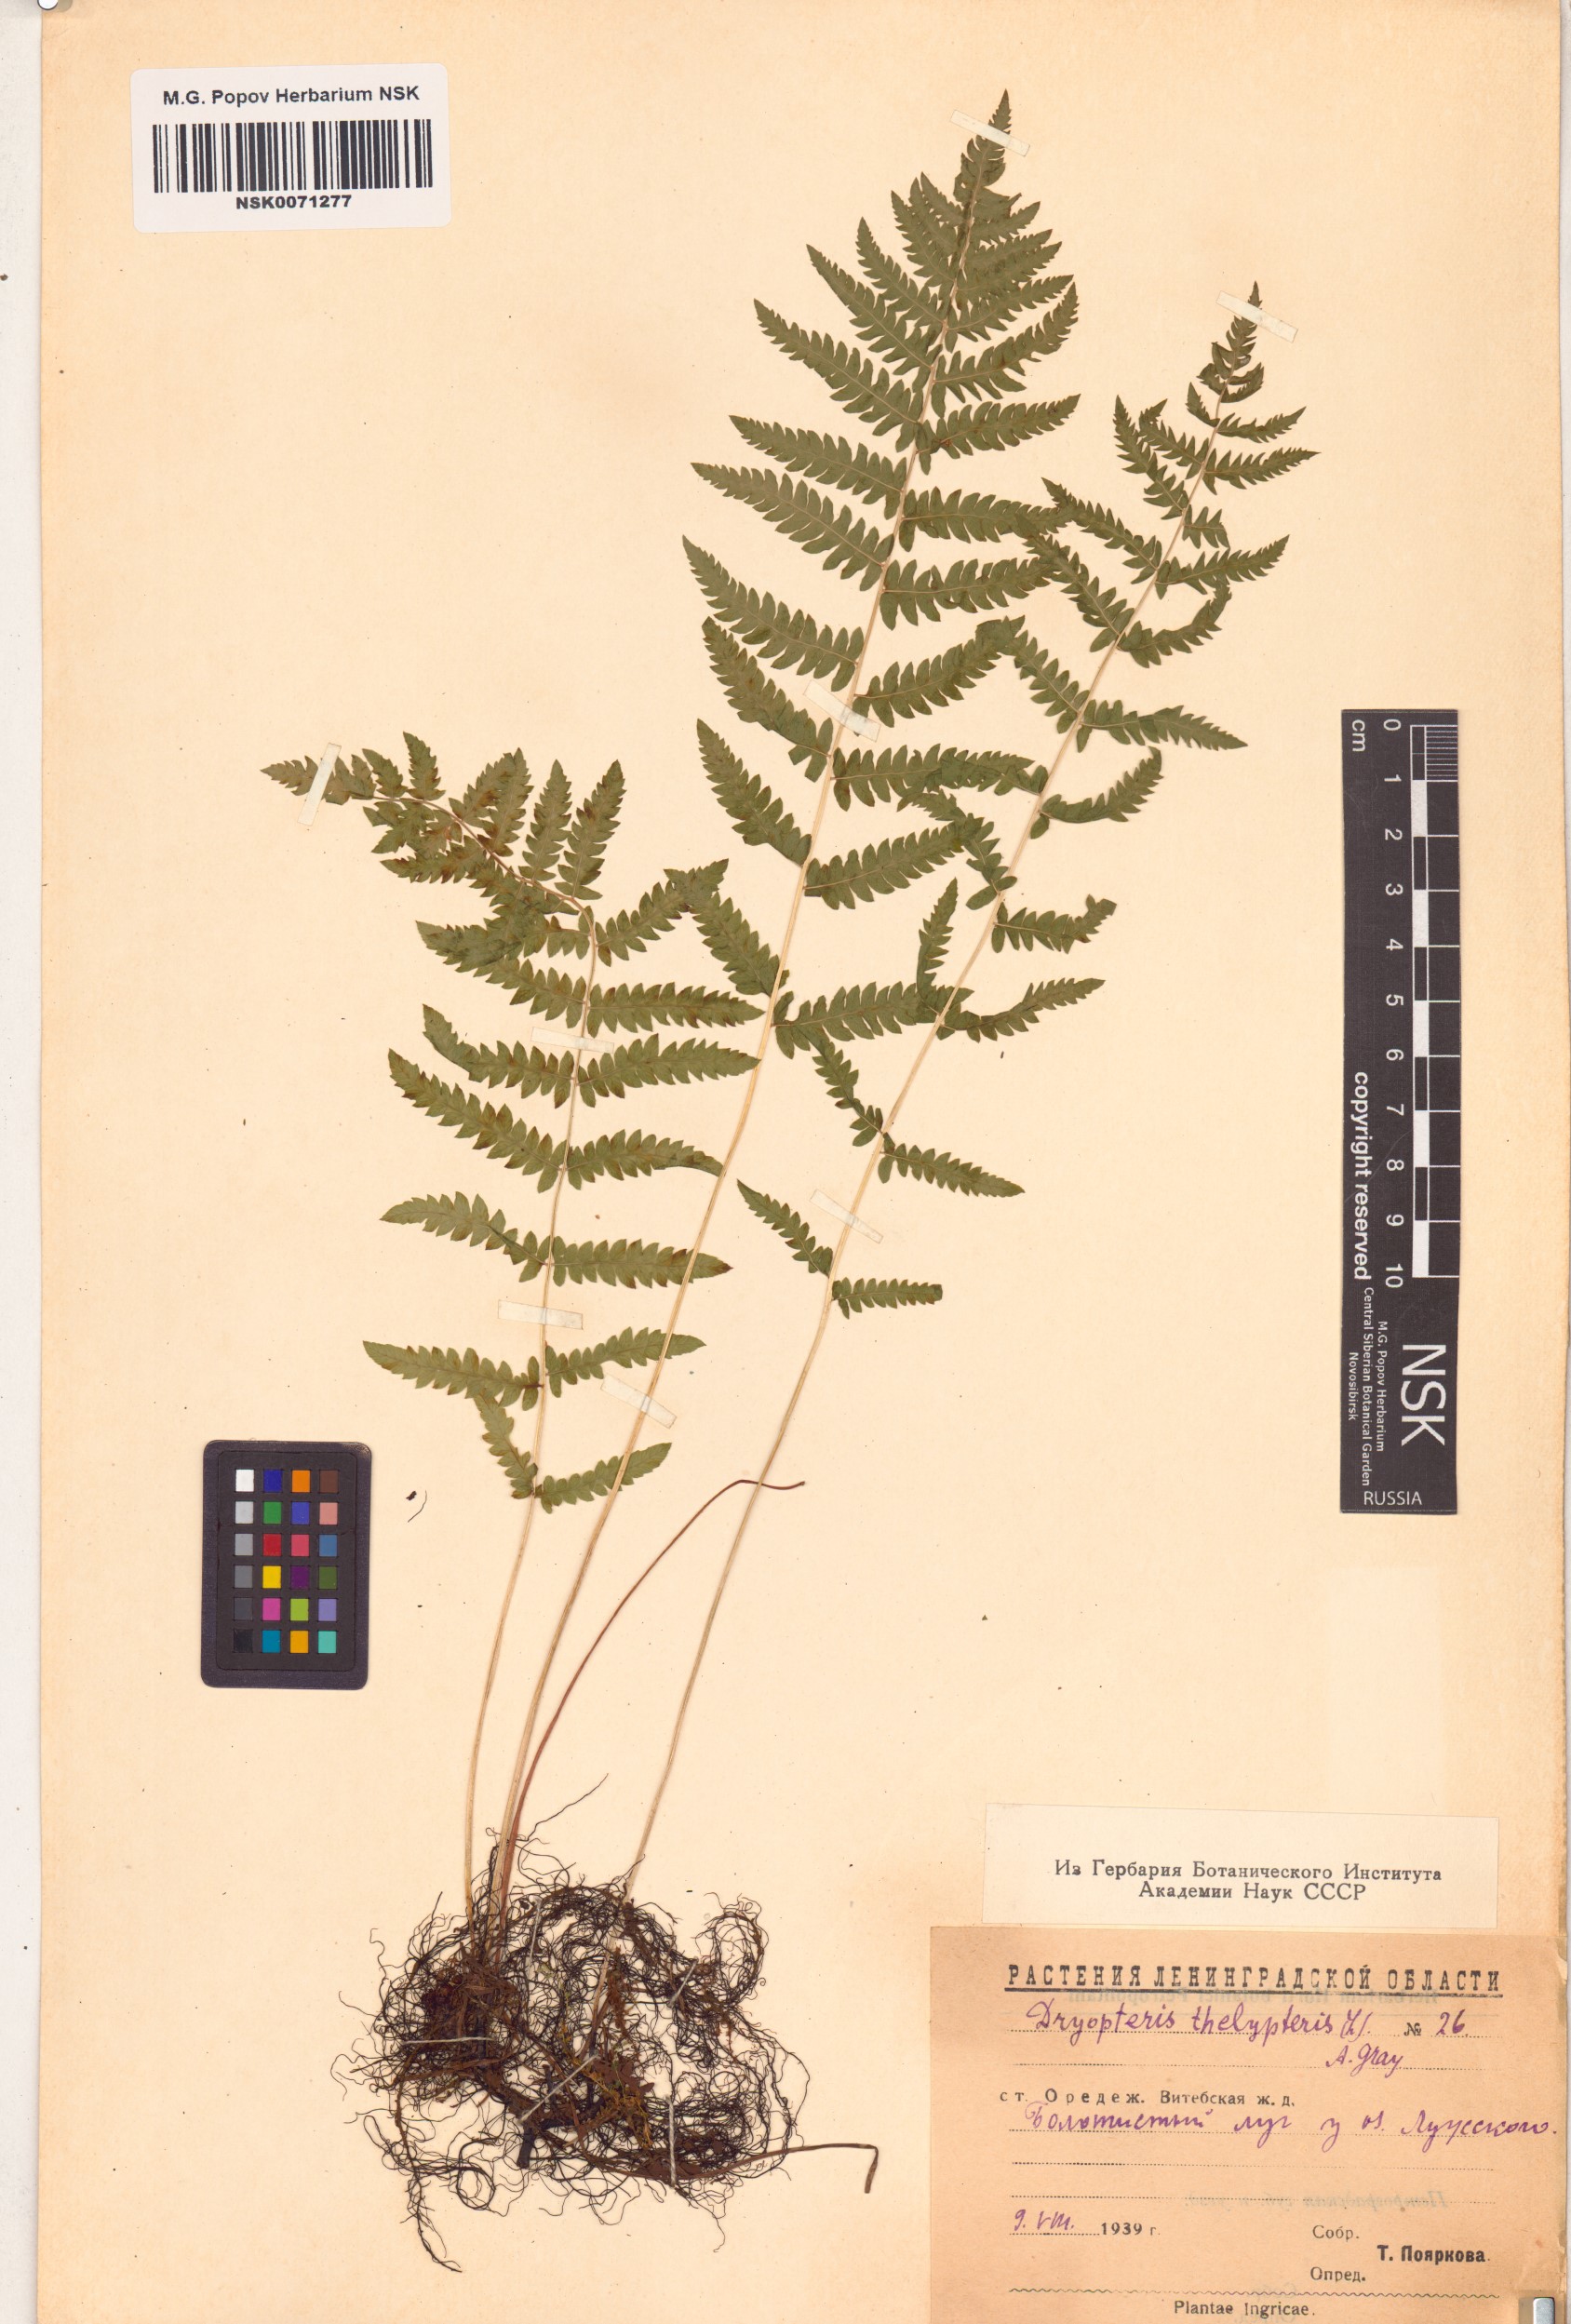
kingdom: Plantae
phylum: Tracheophyta
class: Polypodiopsida
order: Polypodiales
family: Thelypteridaceae
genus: Thelypteris
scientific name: Thelypteris palustris
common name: Marsh fern
